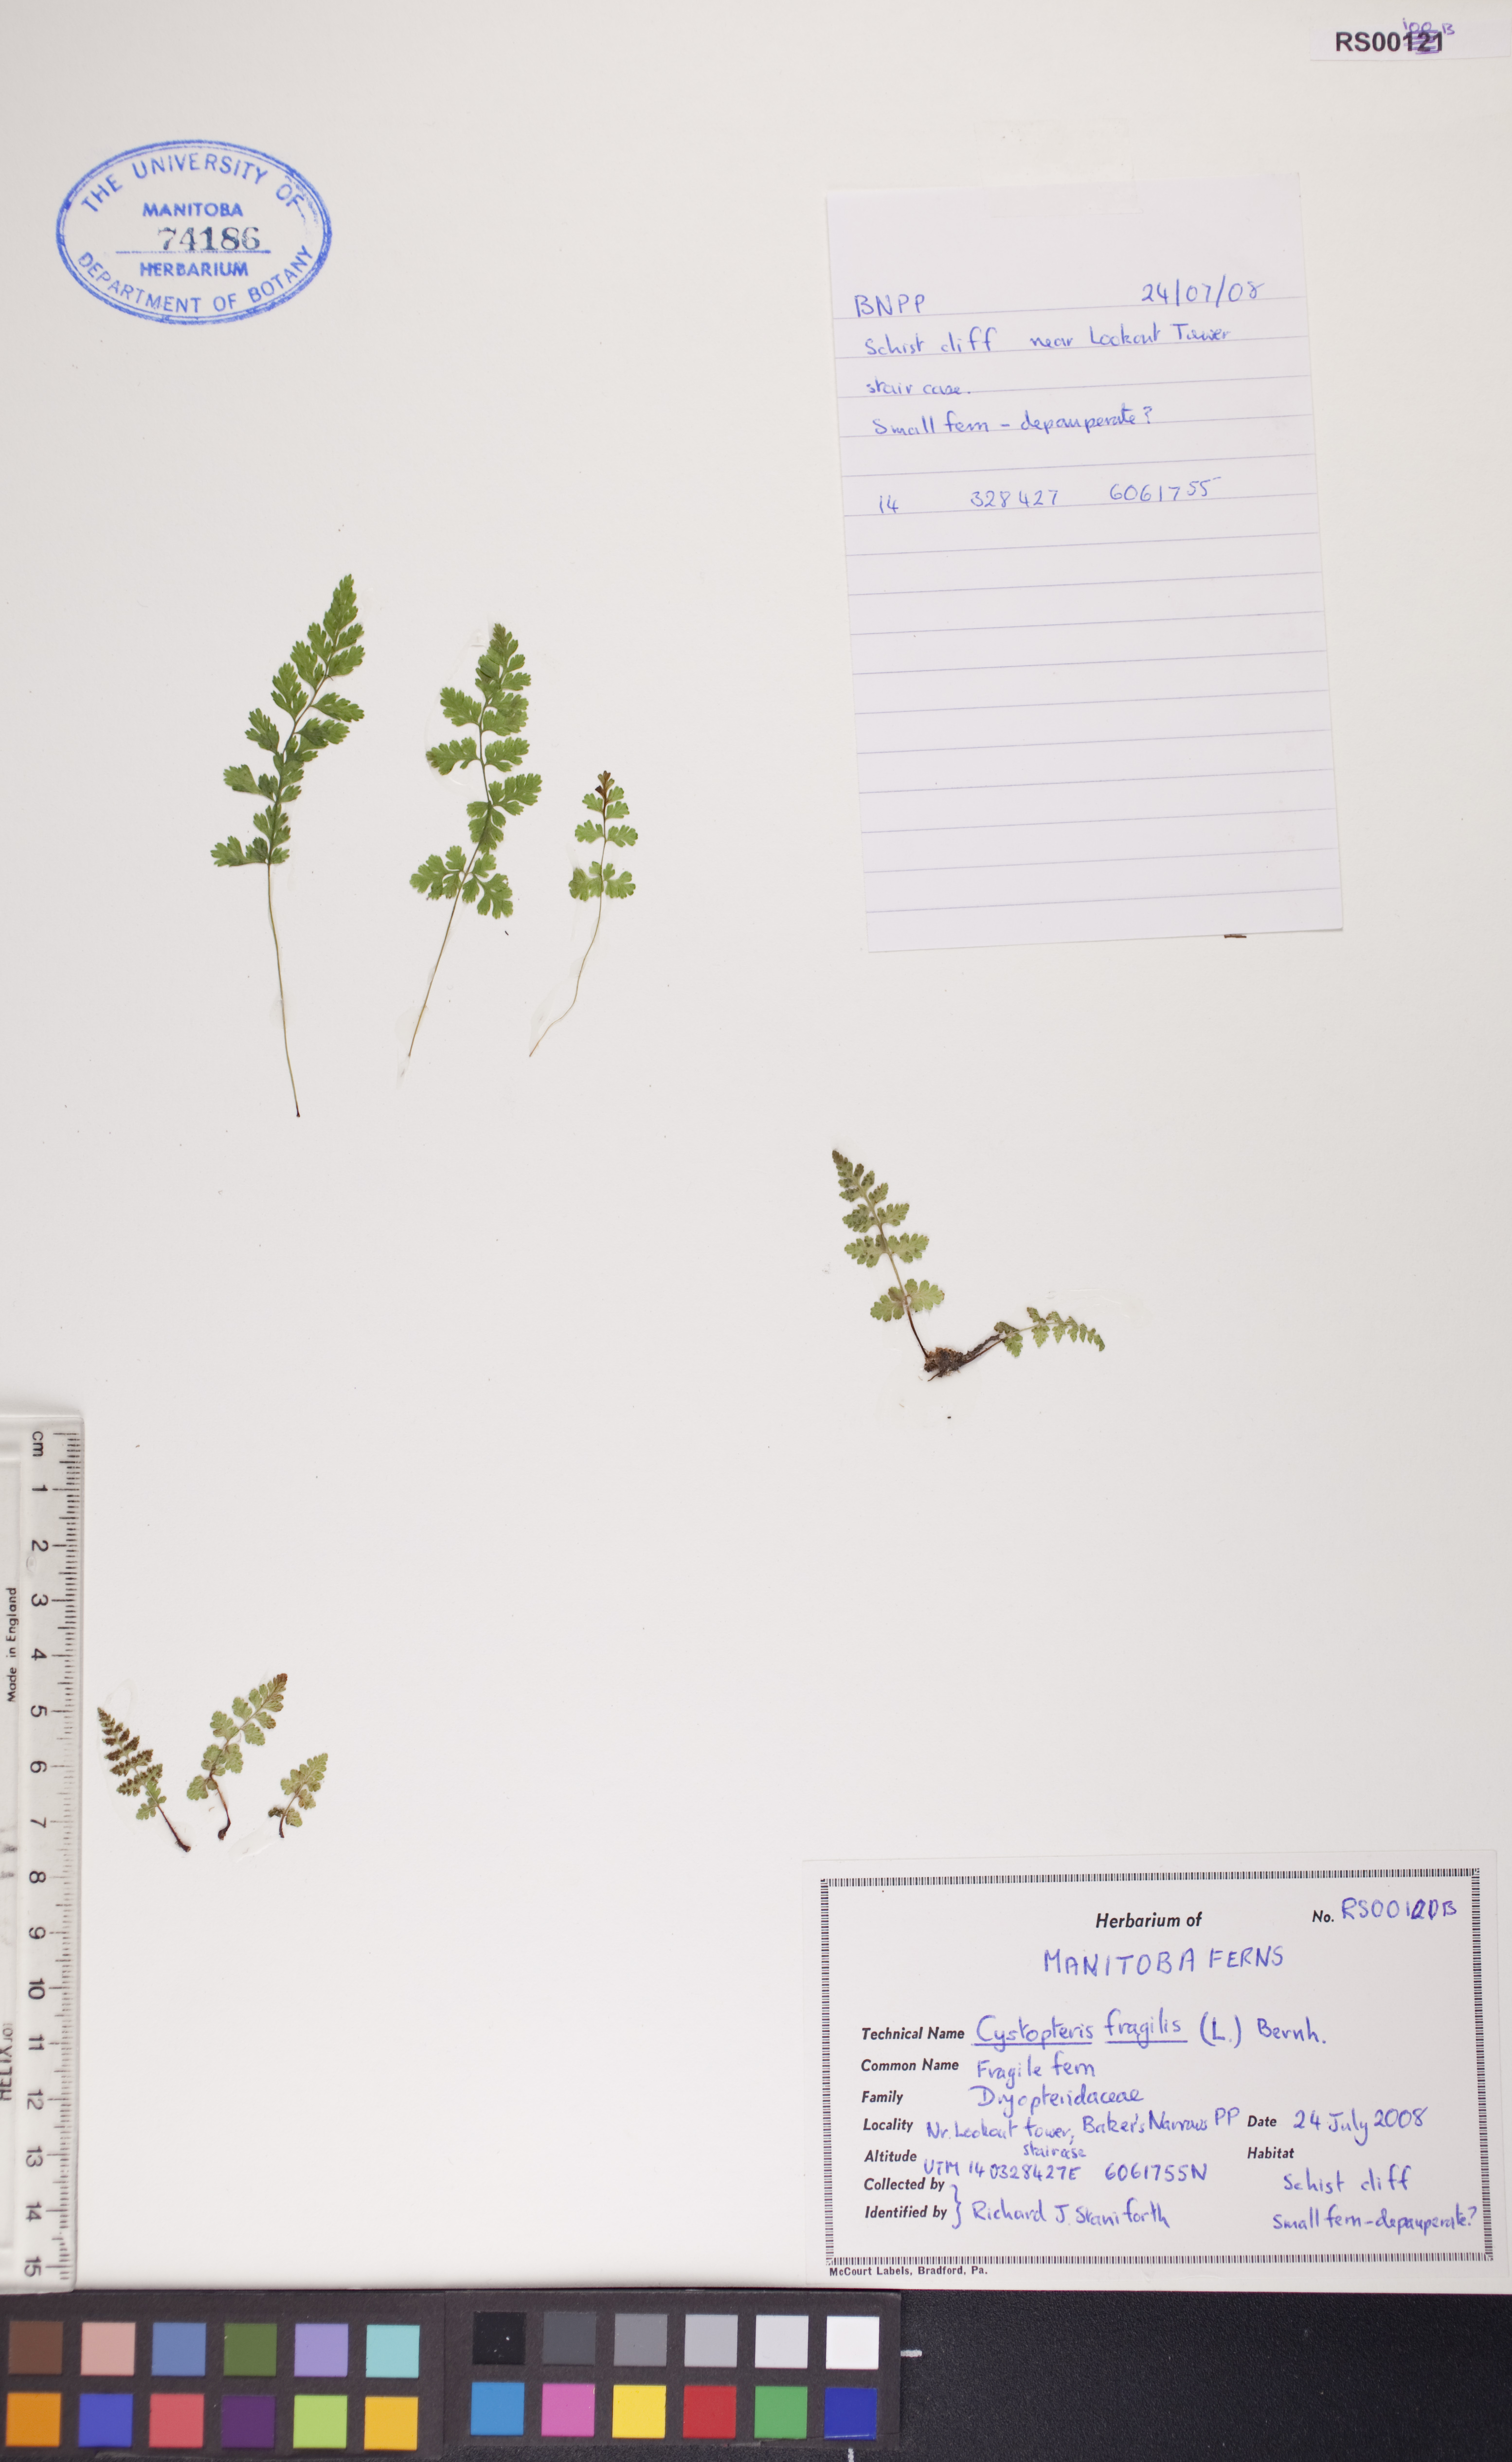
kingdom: Plantae
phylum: Tracheophyta
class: Polypodiopsida
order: Polypodiales
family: Cystopteridaceae
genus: Cystopteris
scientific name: Cystopteris fragilis
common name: Brittle bladder fern
